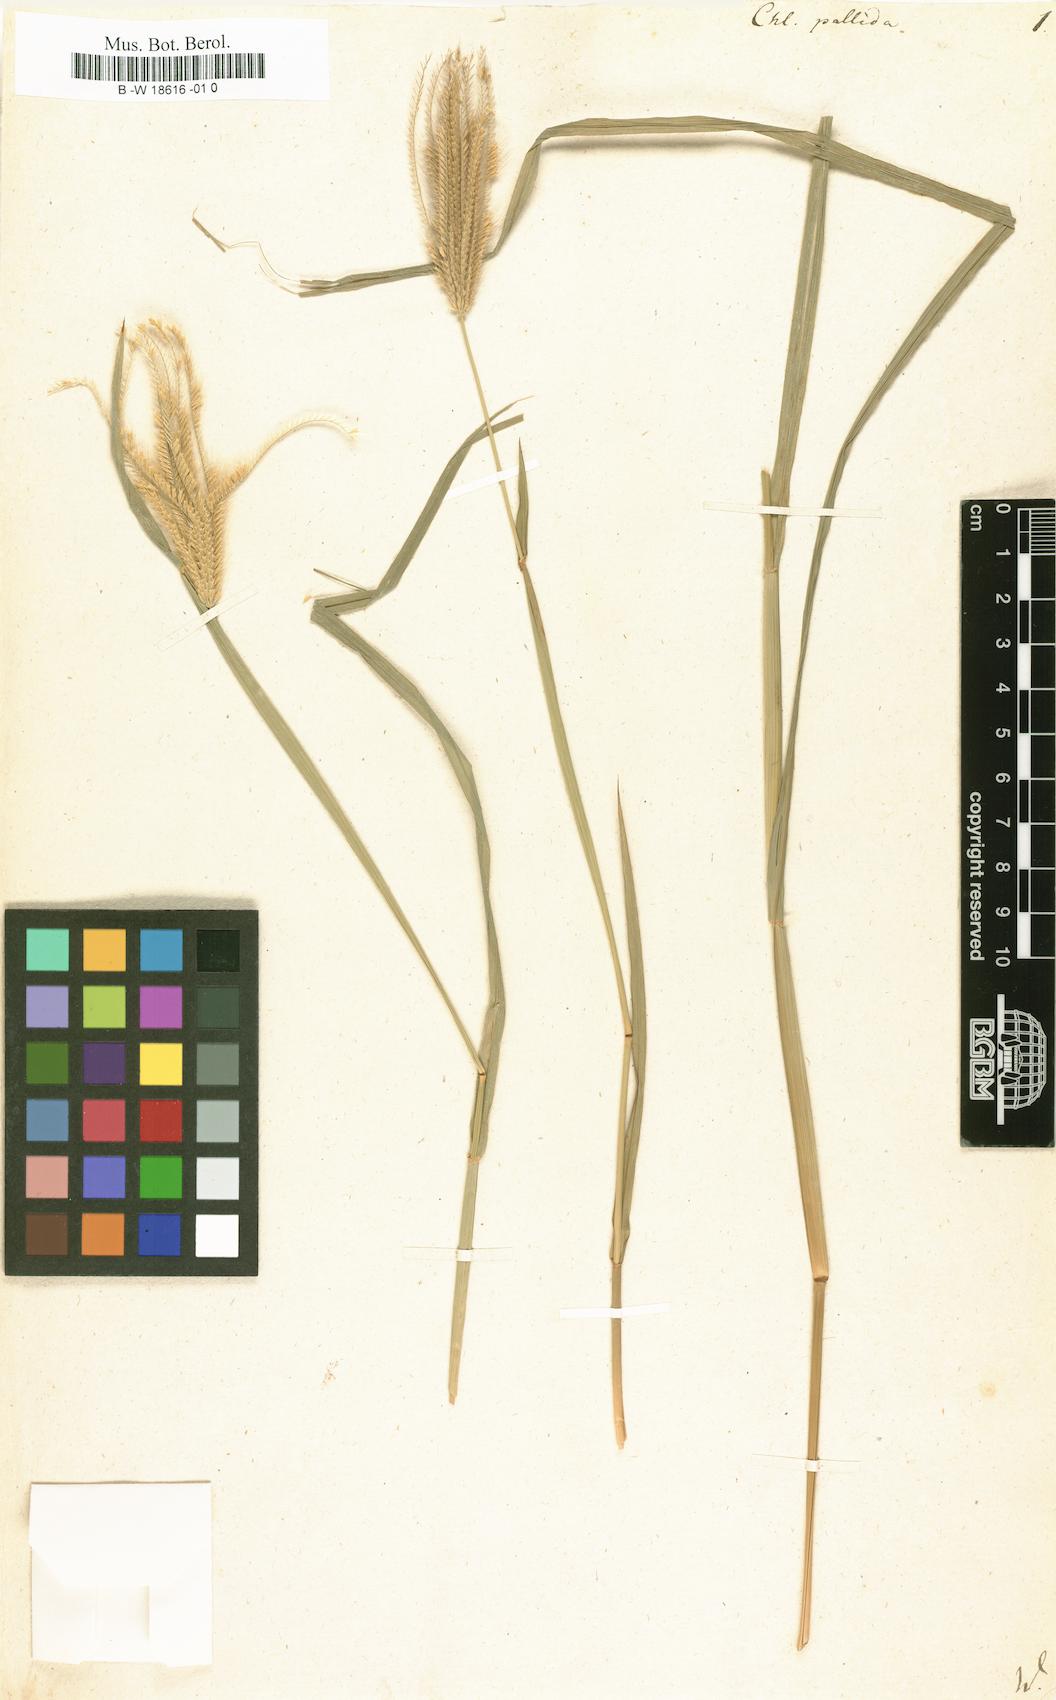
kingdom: Plantae
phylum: Tracheophyta
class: Liliopsida
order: Poales
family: Poaceae
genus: Chloris
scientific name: Chloris radiata
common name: Radiate fingergrass
